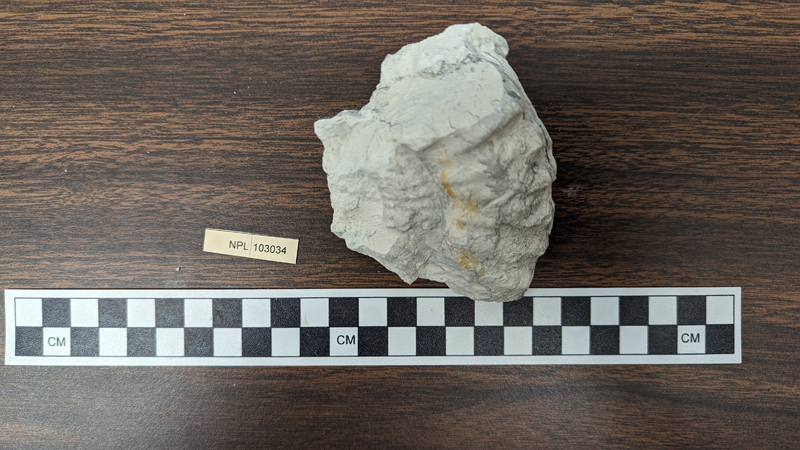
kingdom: Animalia
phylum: Mollusca
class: Cephalopoda
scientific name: Cephalopoda
